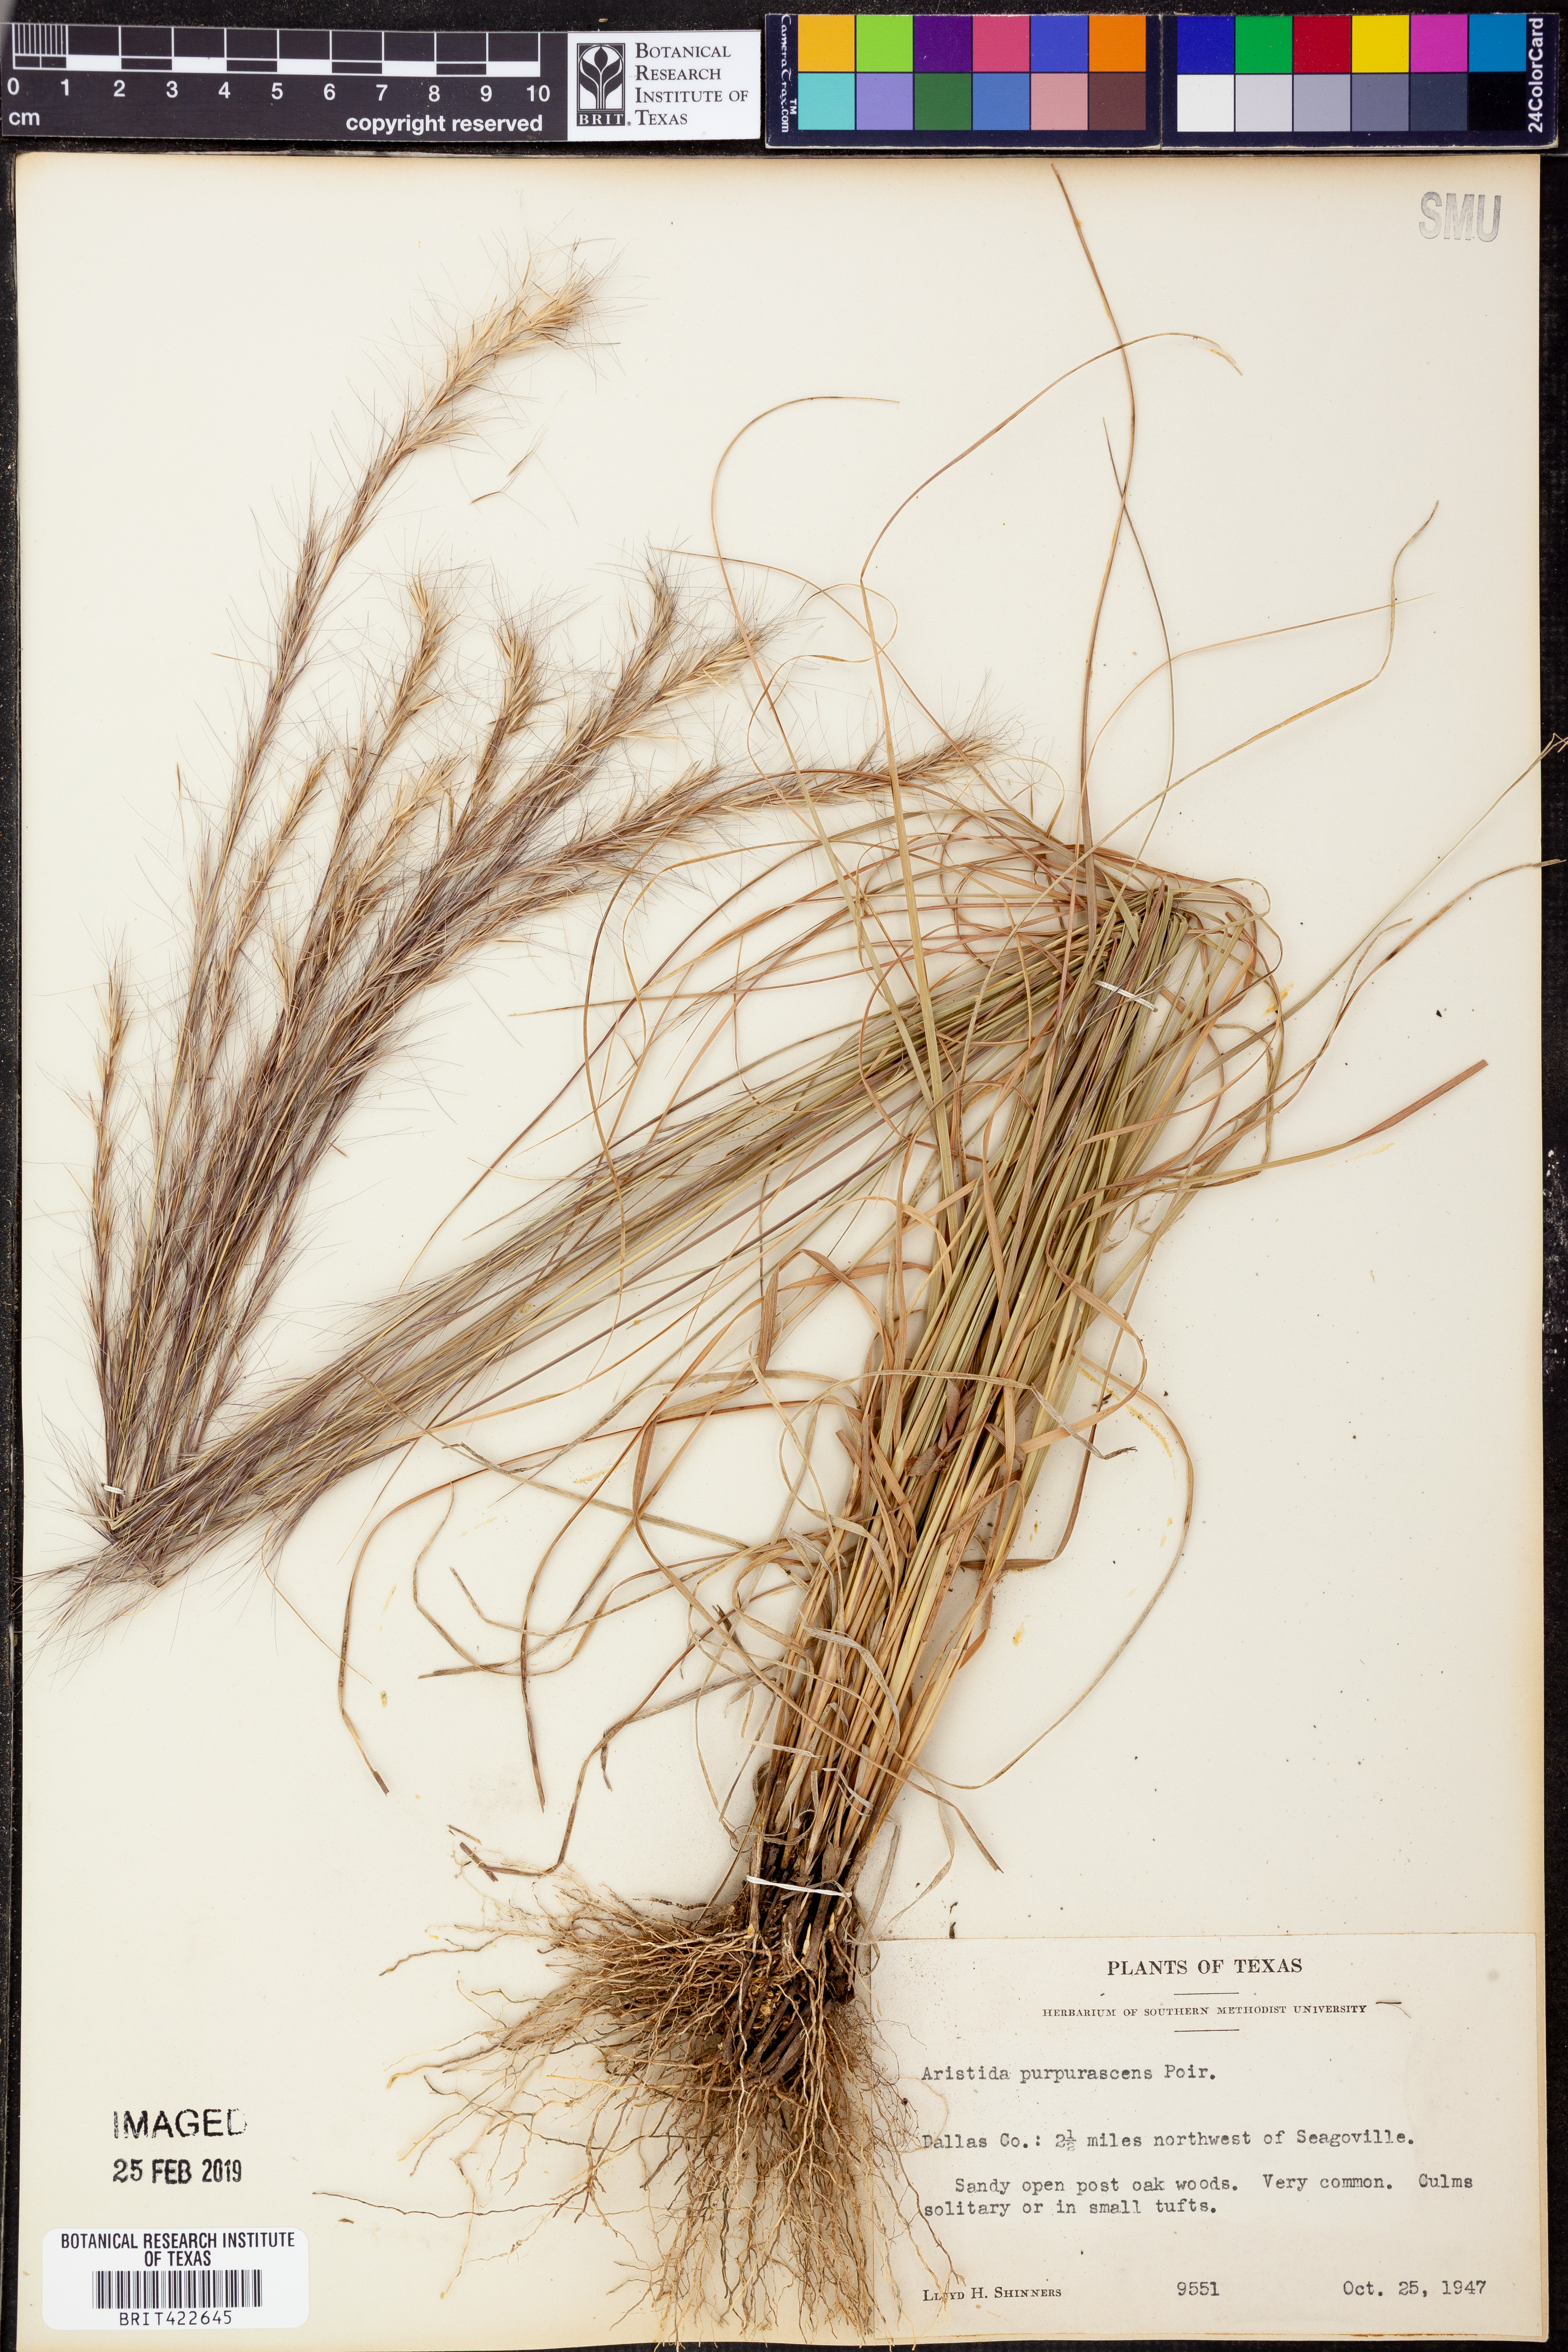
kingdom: Plantae
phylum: Tracheophyta
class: Liliopsida
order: Poales
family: Poaceae
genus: Aristida
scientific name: Aristida purpurascens
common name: Arrow-feather
